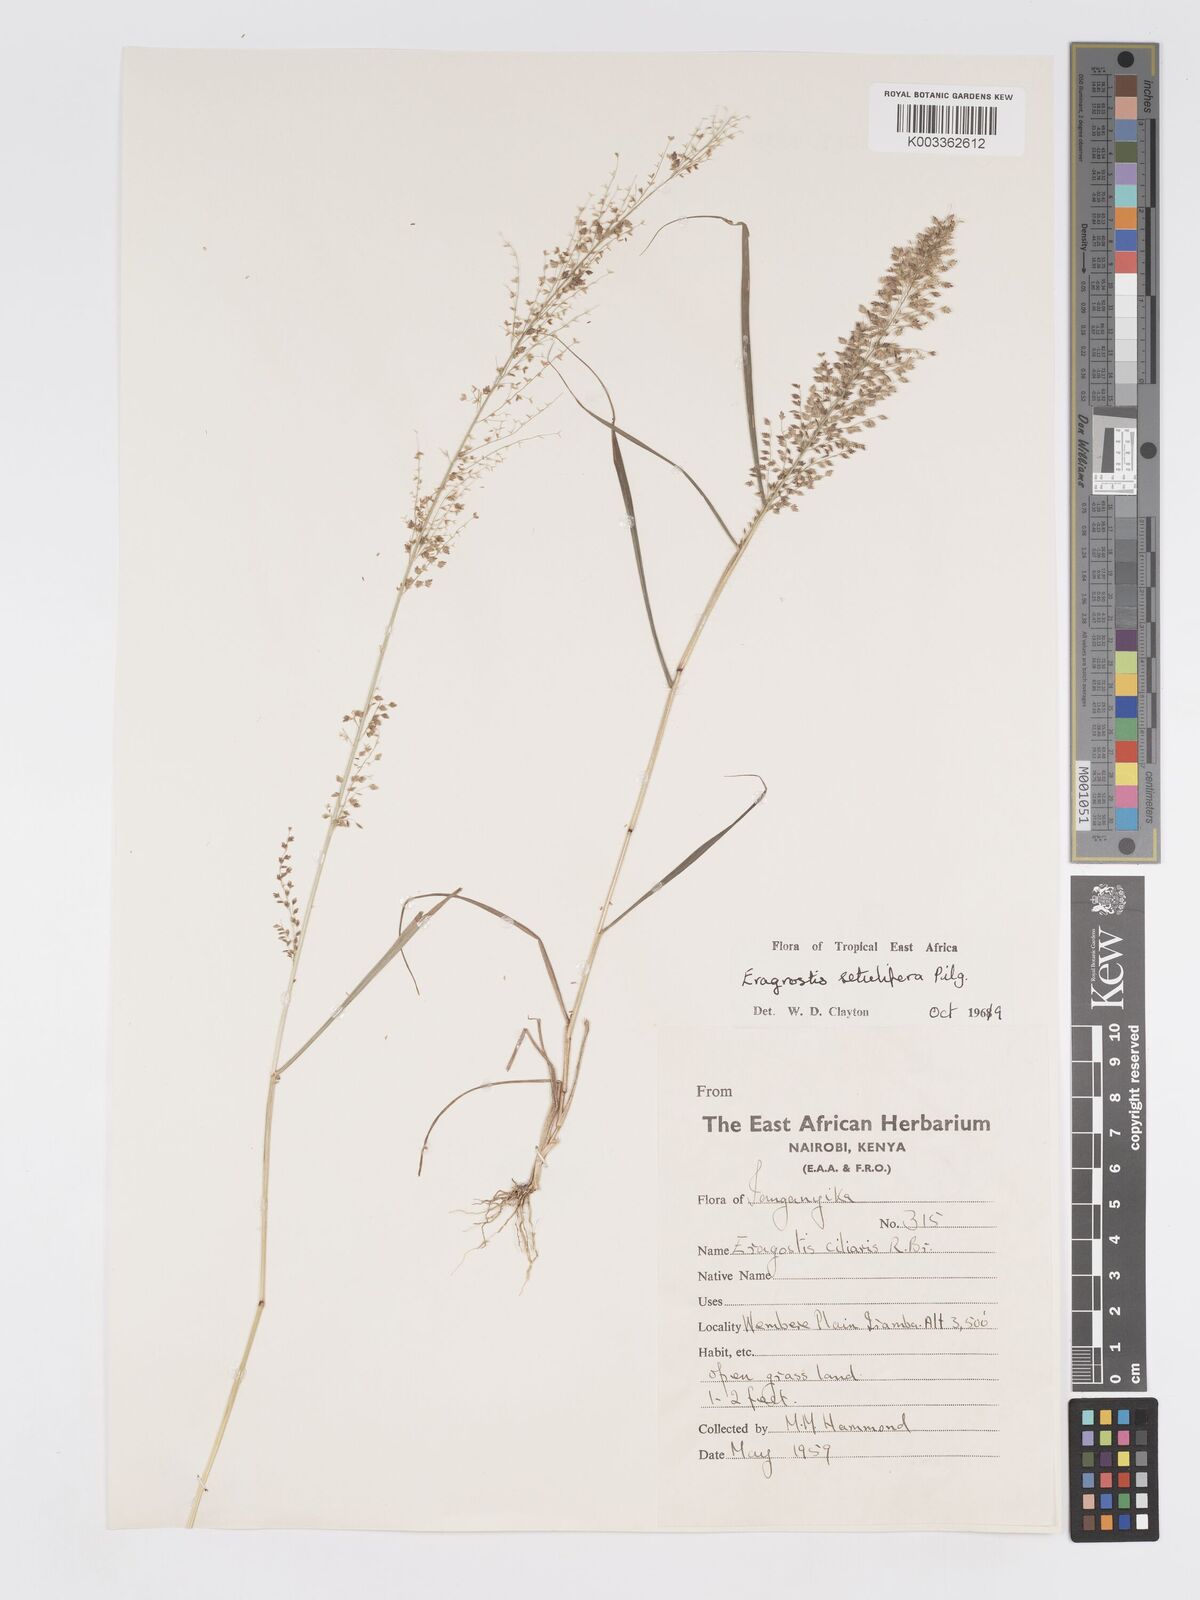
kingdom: Plantae
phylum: Tracheophyta
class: Liliopsida
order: Poales
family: Poaceae
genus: Eragrostis
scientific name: Eragrostis setulifera
